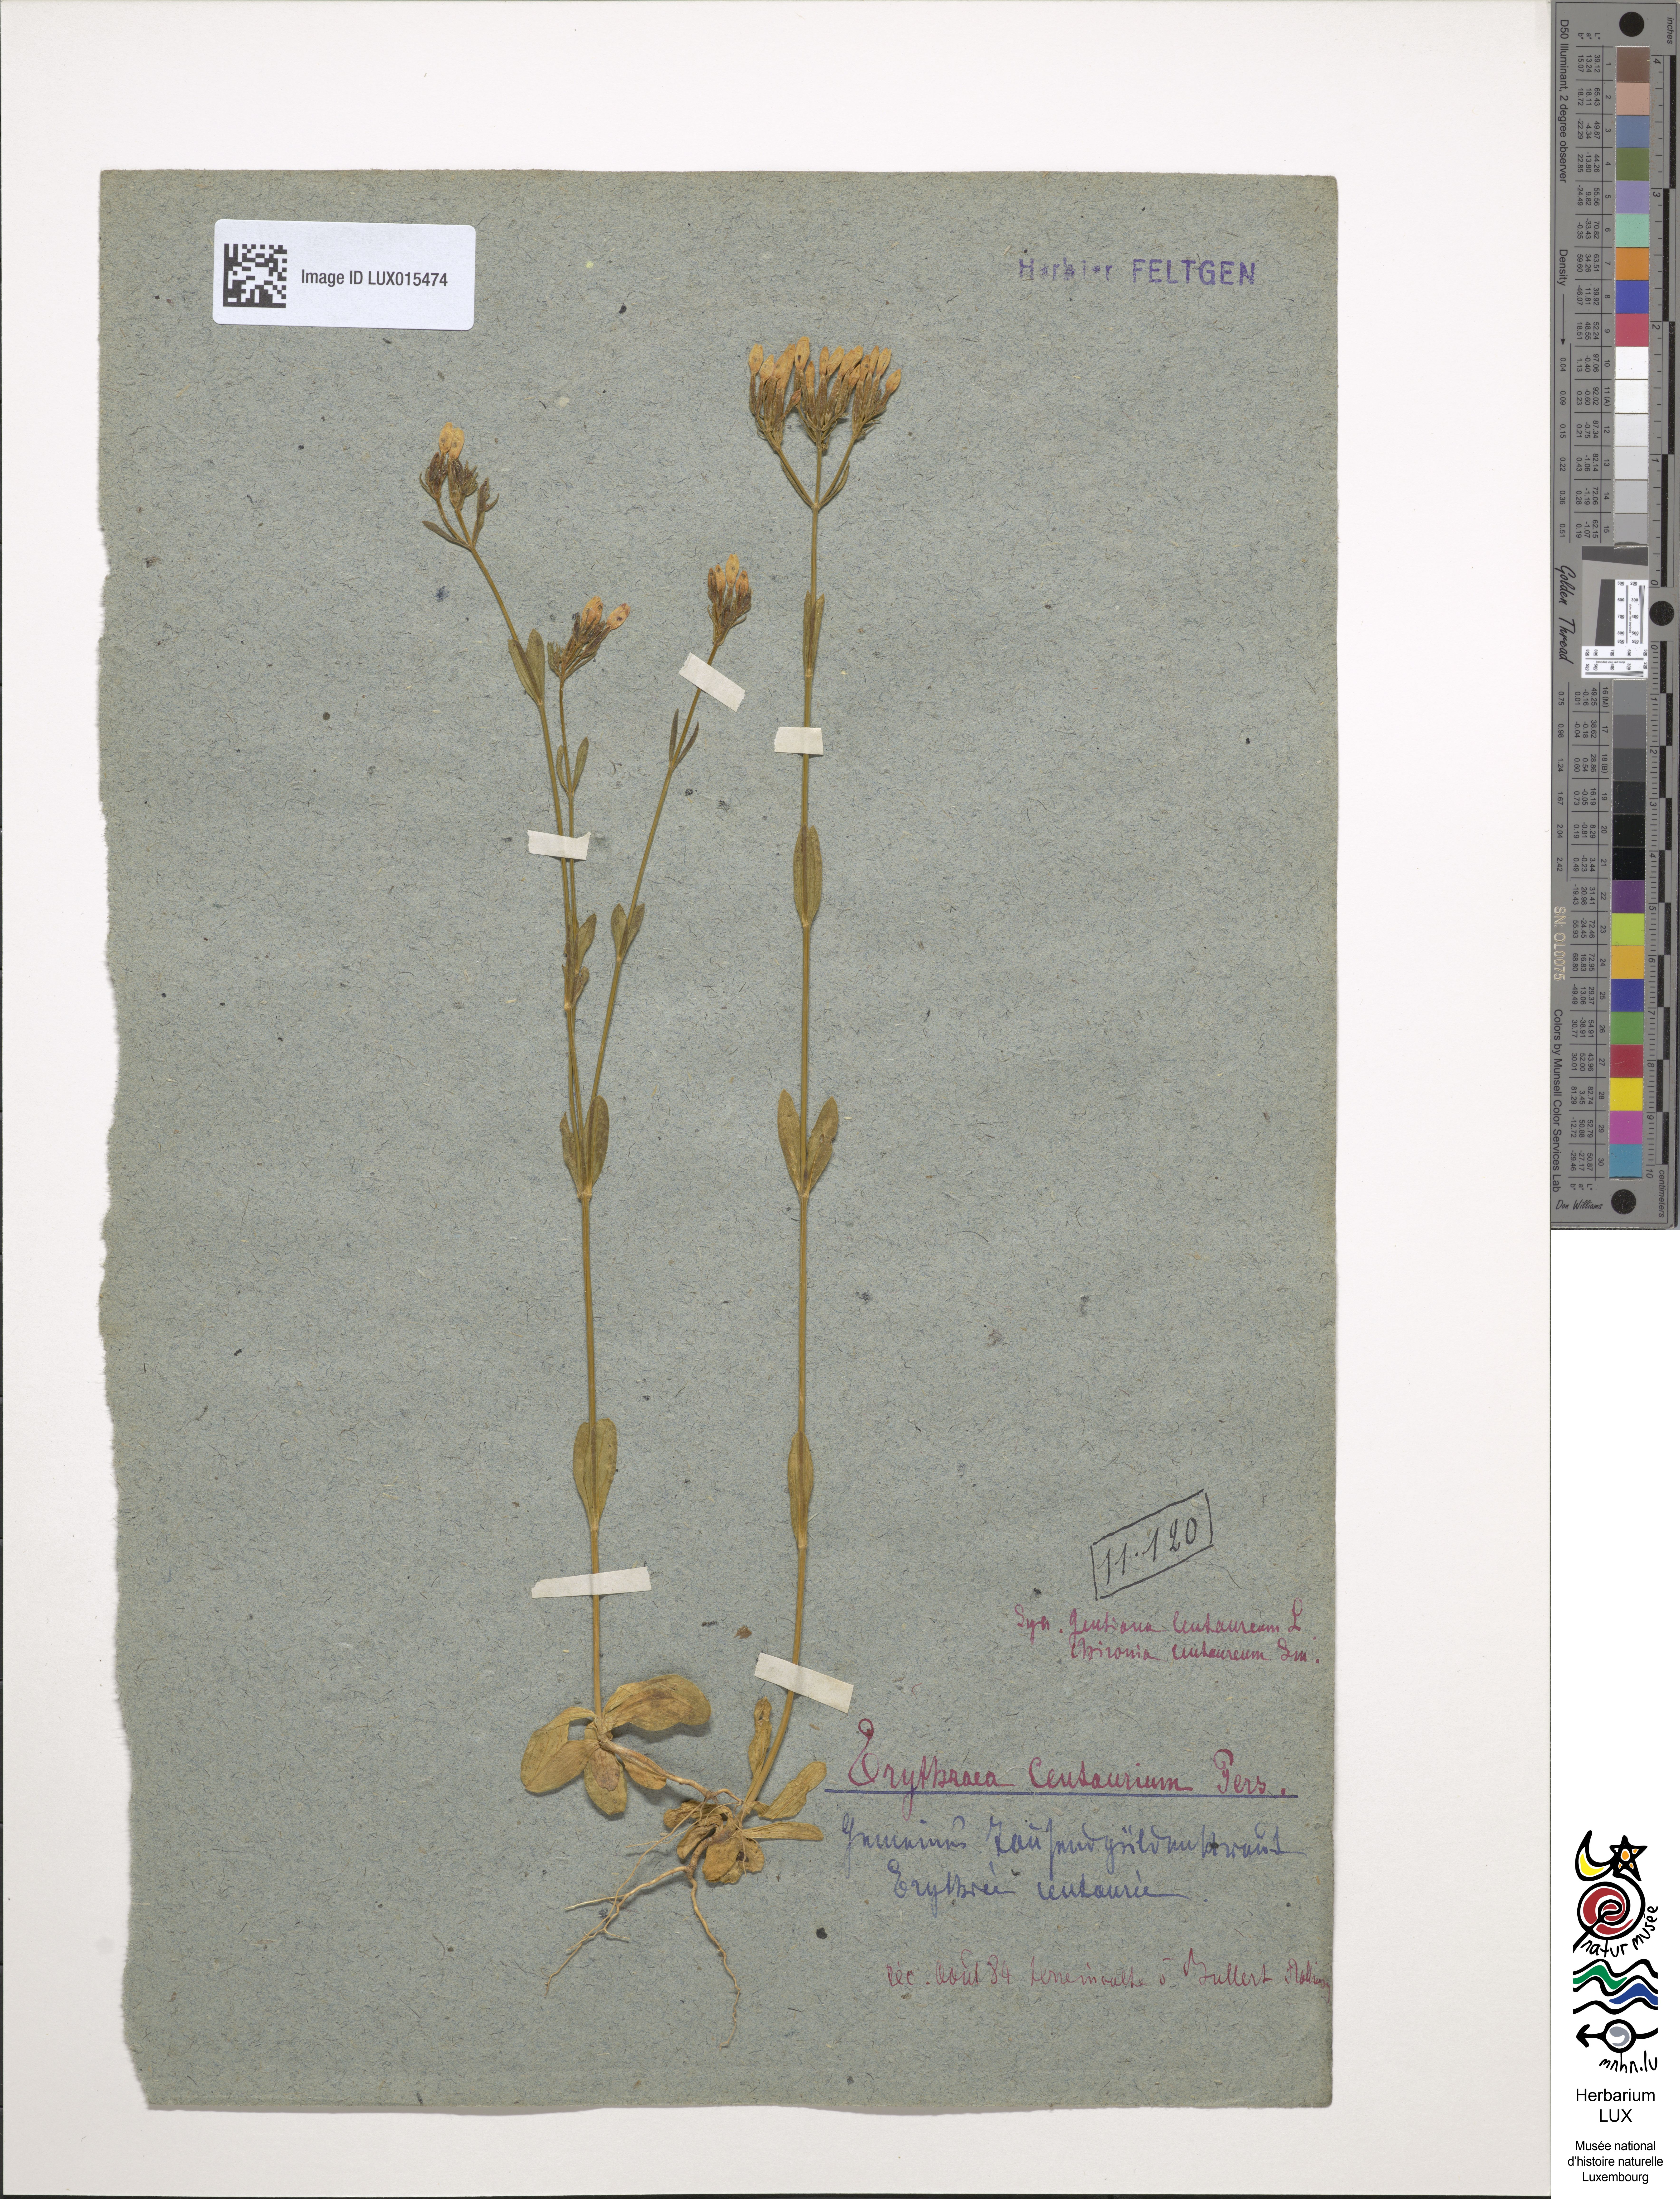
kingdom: Plantae
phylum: Tracheophyta
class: Magnoliopsida
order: Gentianales
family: Gentianaceae
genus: Centaurium
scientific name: Centaurium erythraea
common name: Common centaury
